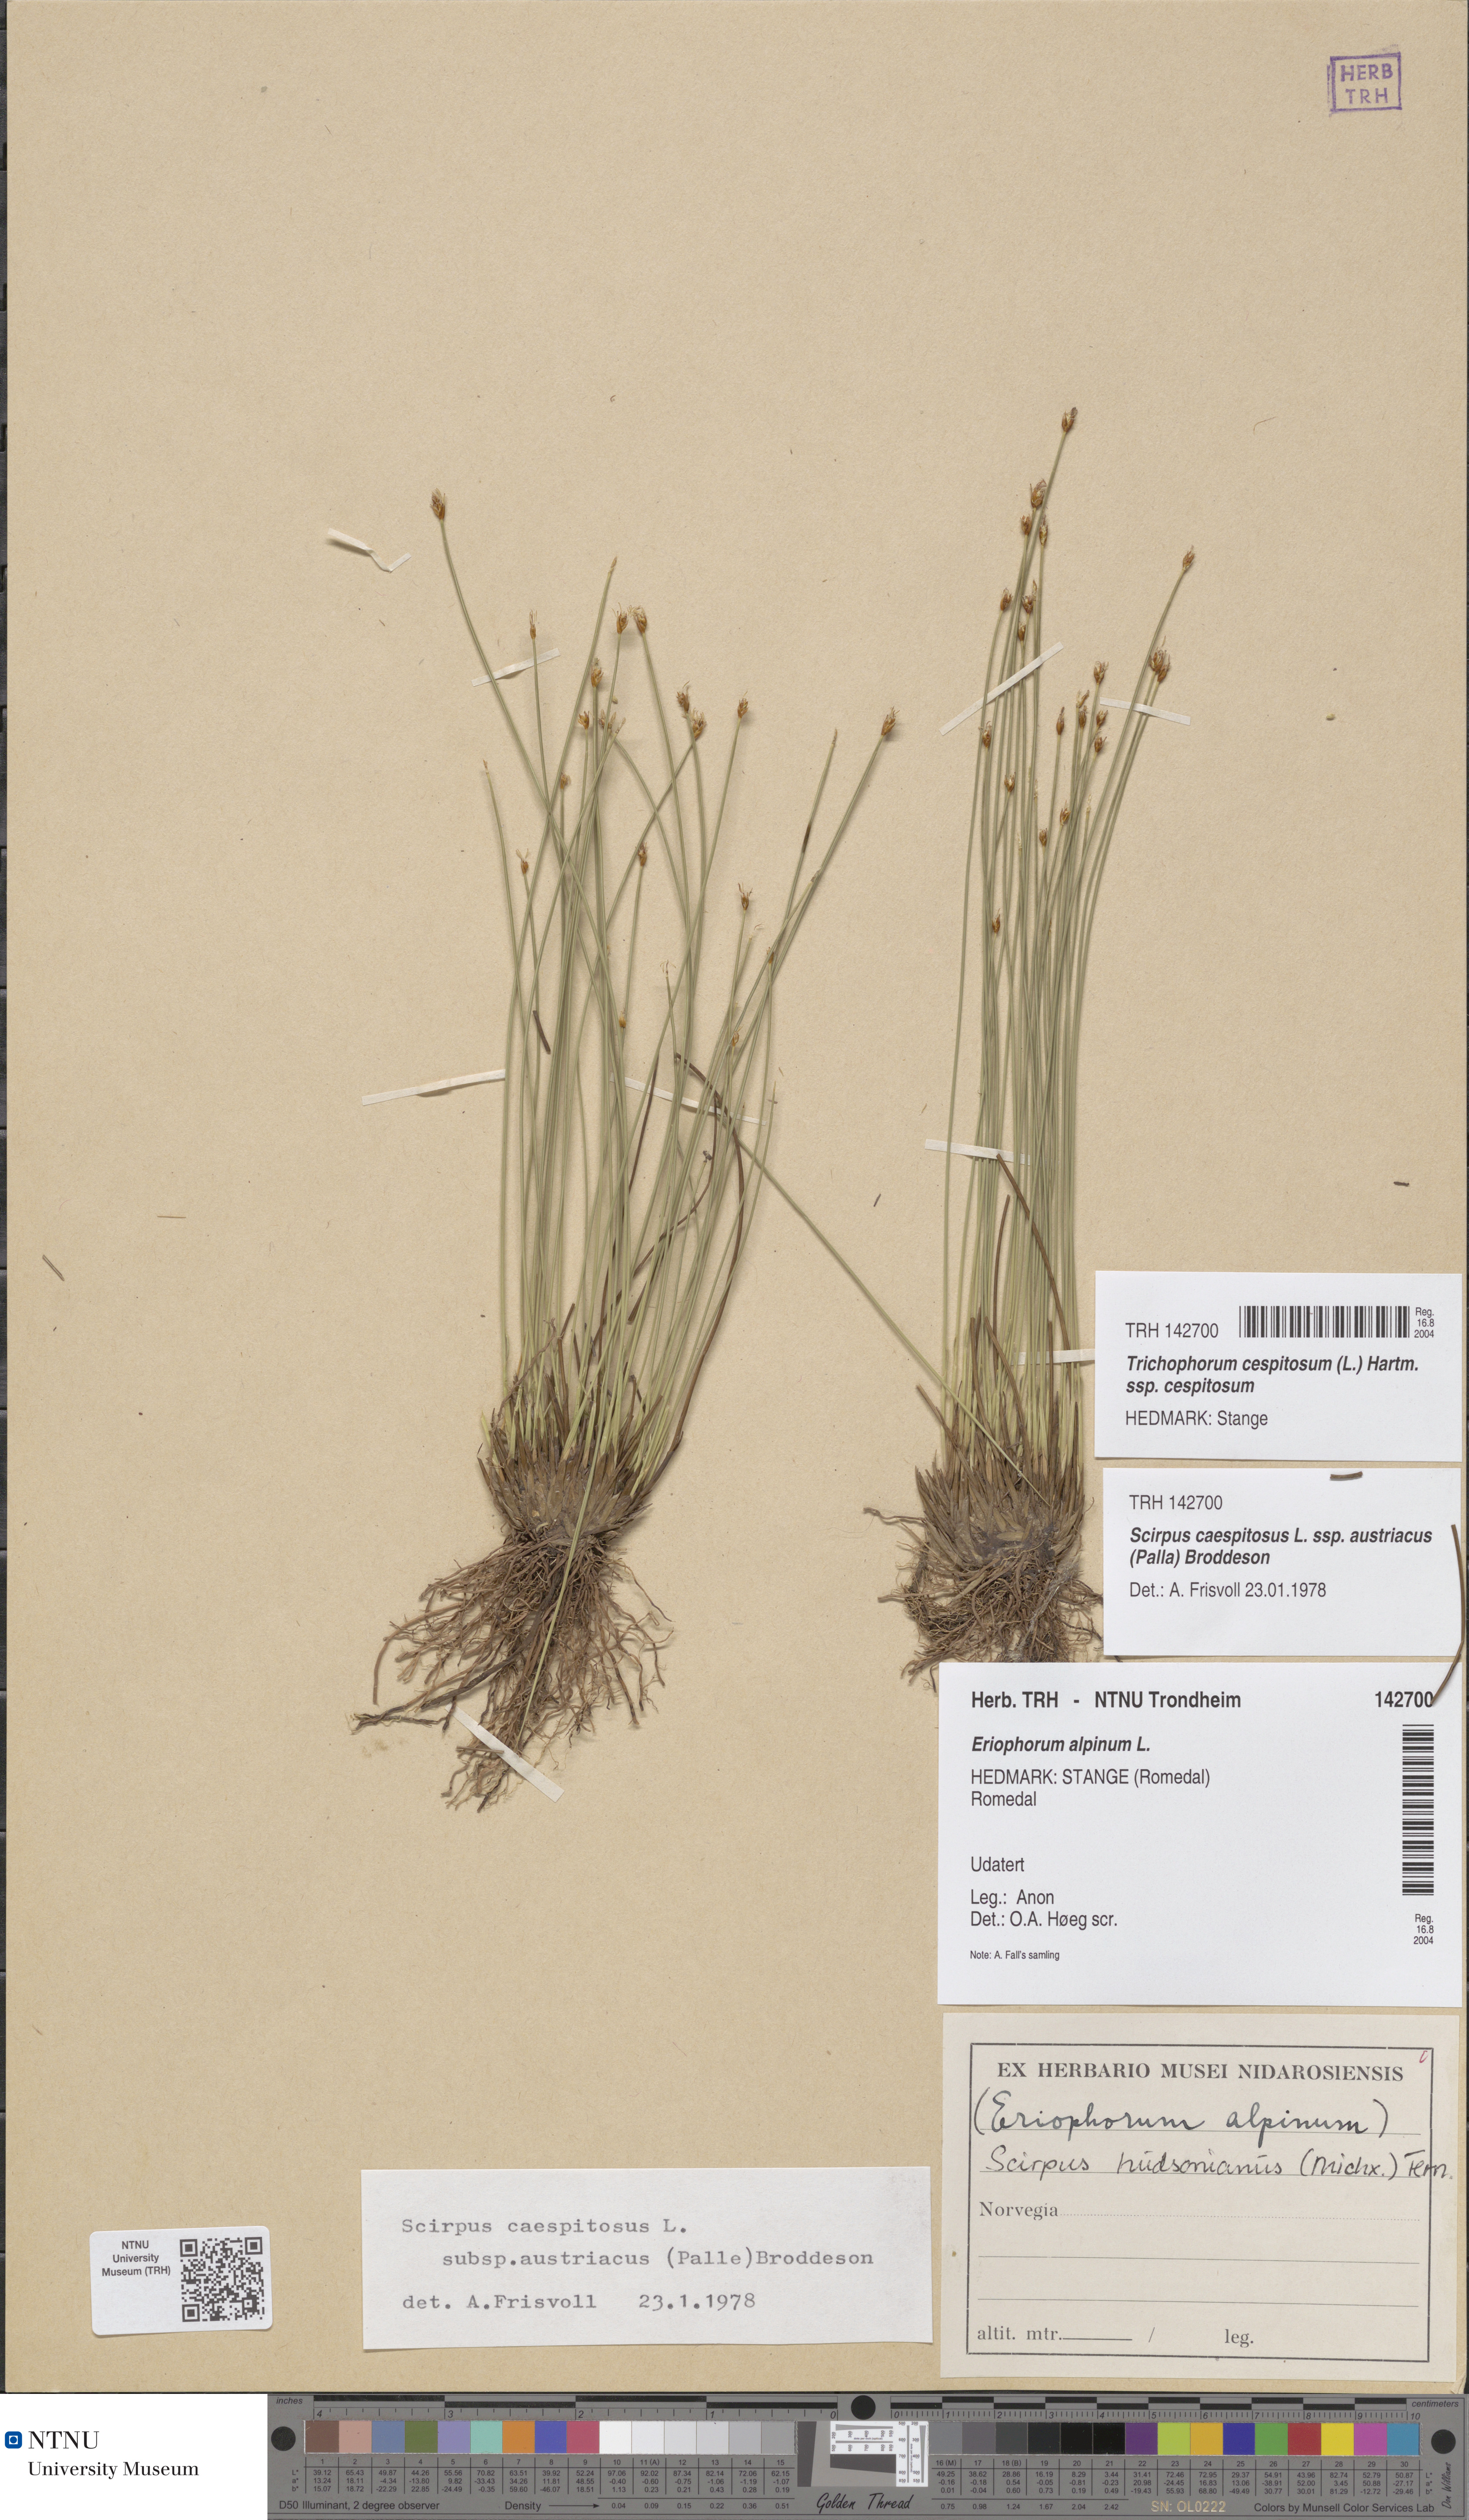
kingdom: Plantae
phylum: Tracheophyta
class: Liliopsida
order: Poales
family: Cyperaceae
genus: Trichophorum
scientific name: Trichophorum cespitosum
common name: Cespitose bulrush
